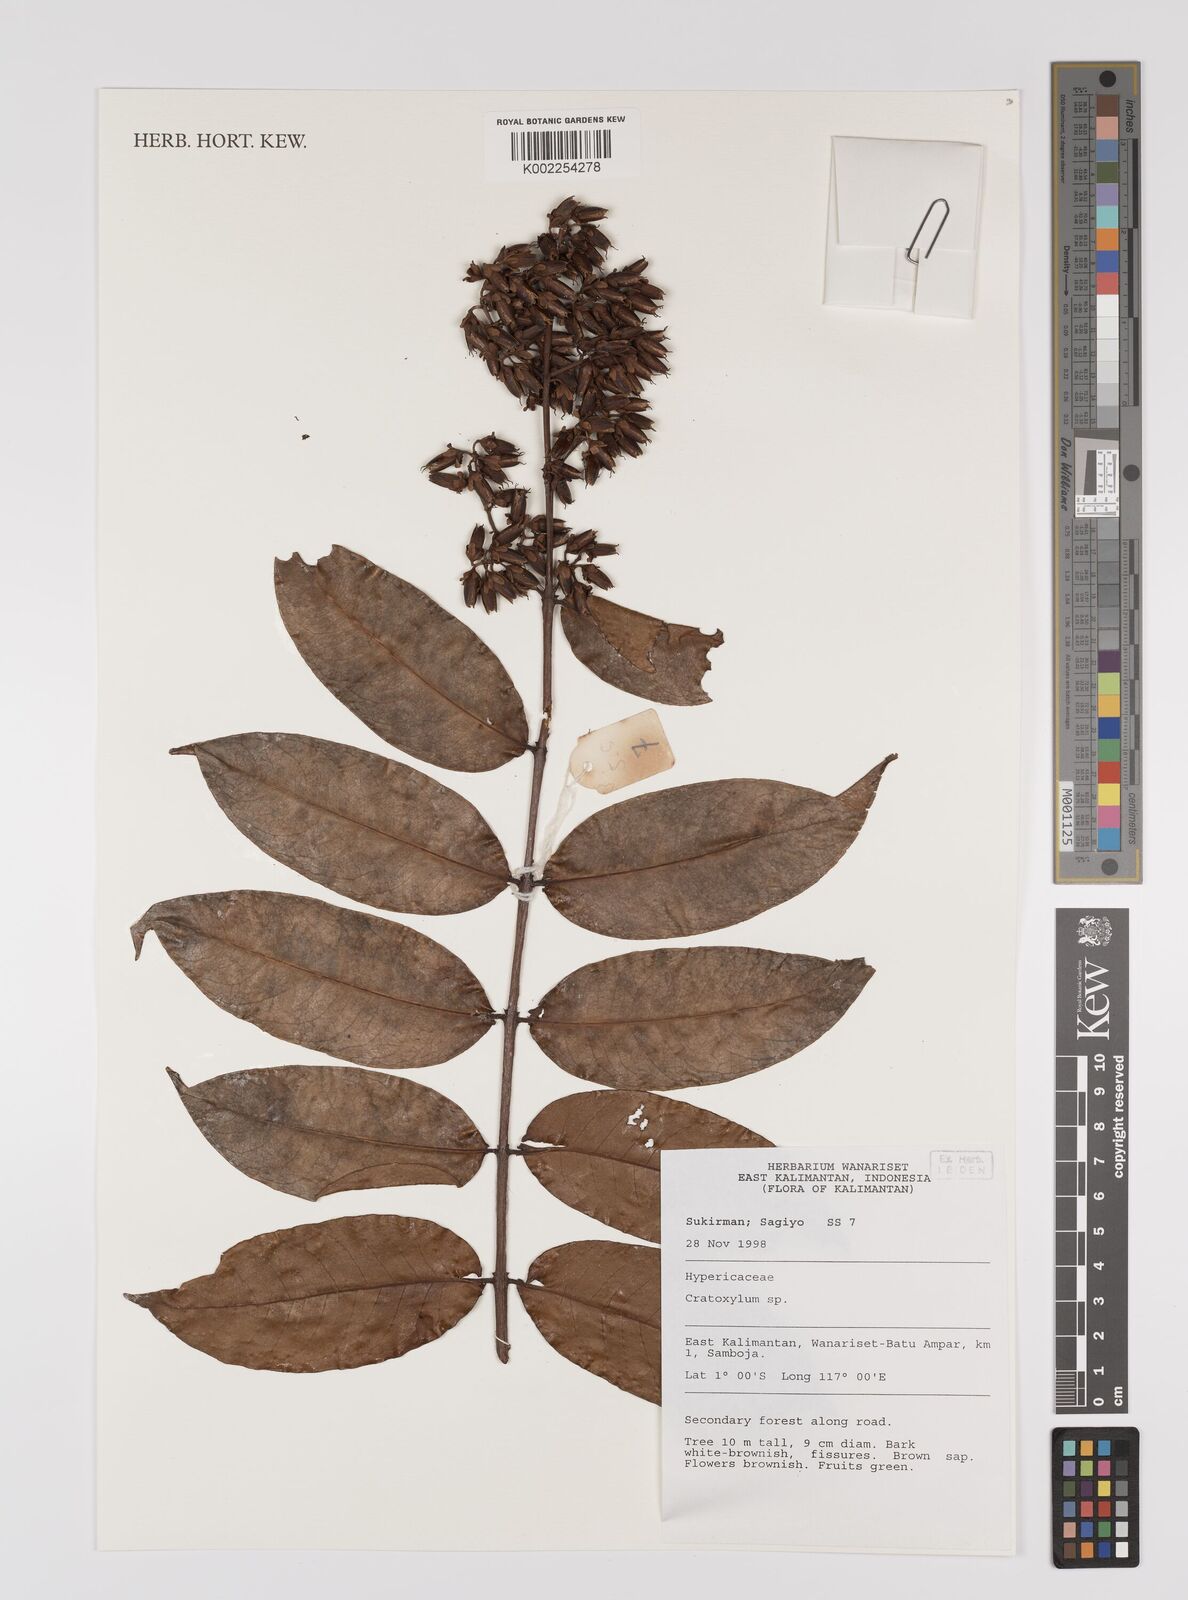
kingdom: Plantae
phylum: Tracheophyta
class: Magnoliopsida
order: Malpighiales
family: Hypericaceae
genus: Cratoxylum
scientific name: Cratoxylum
